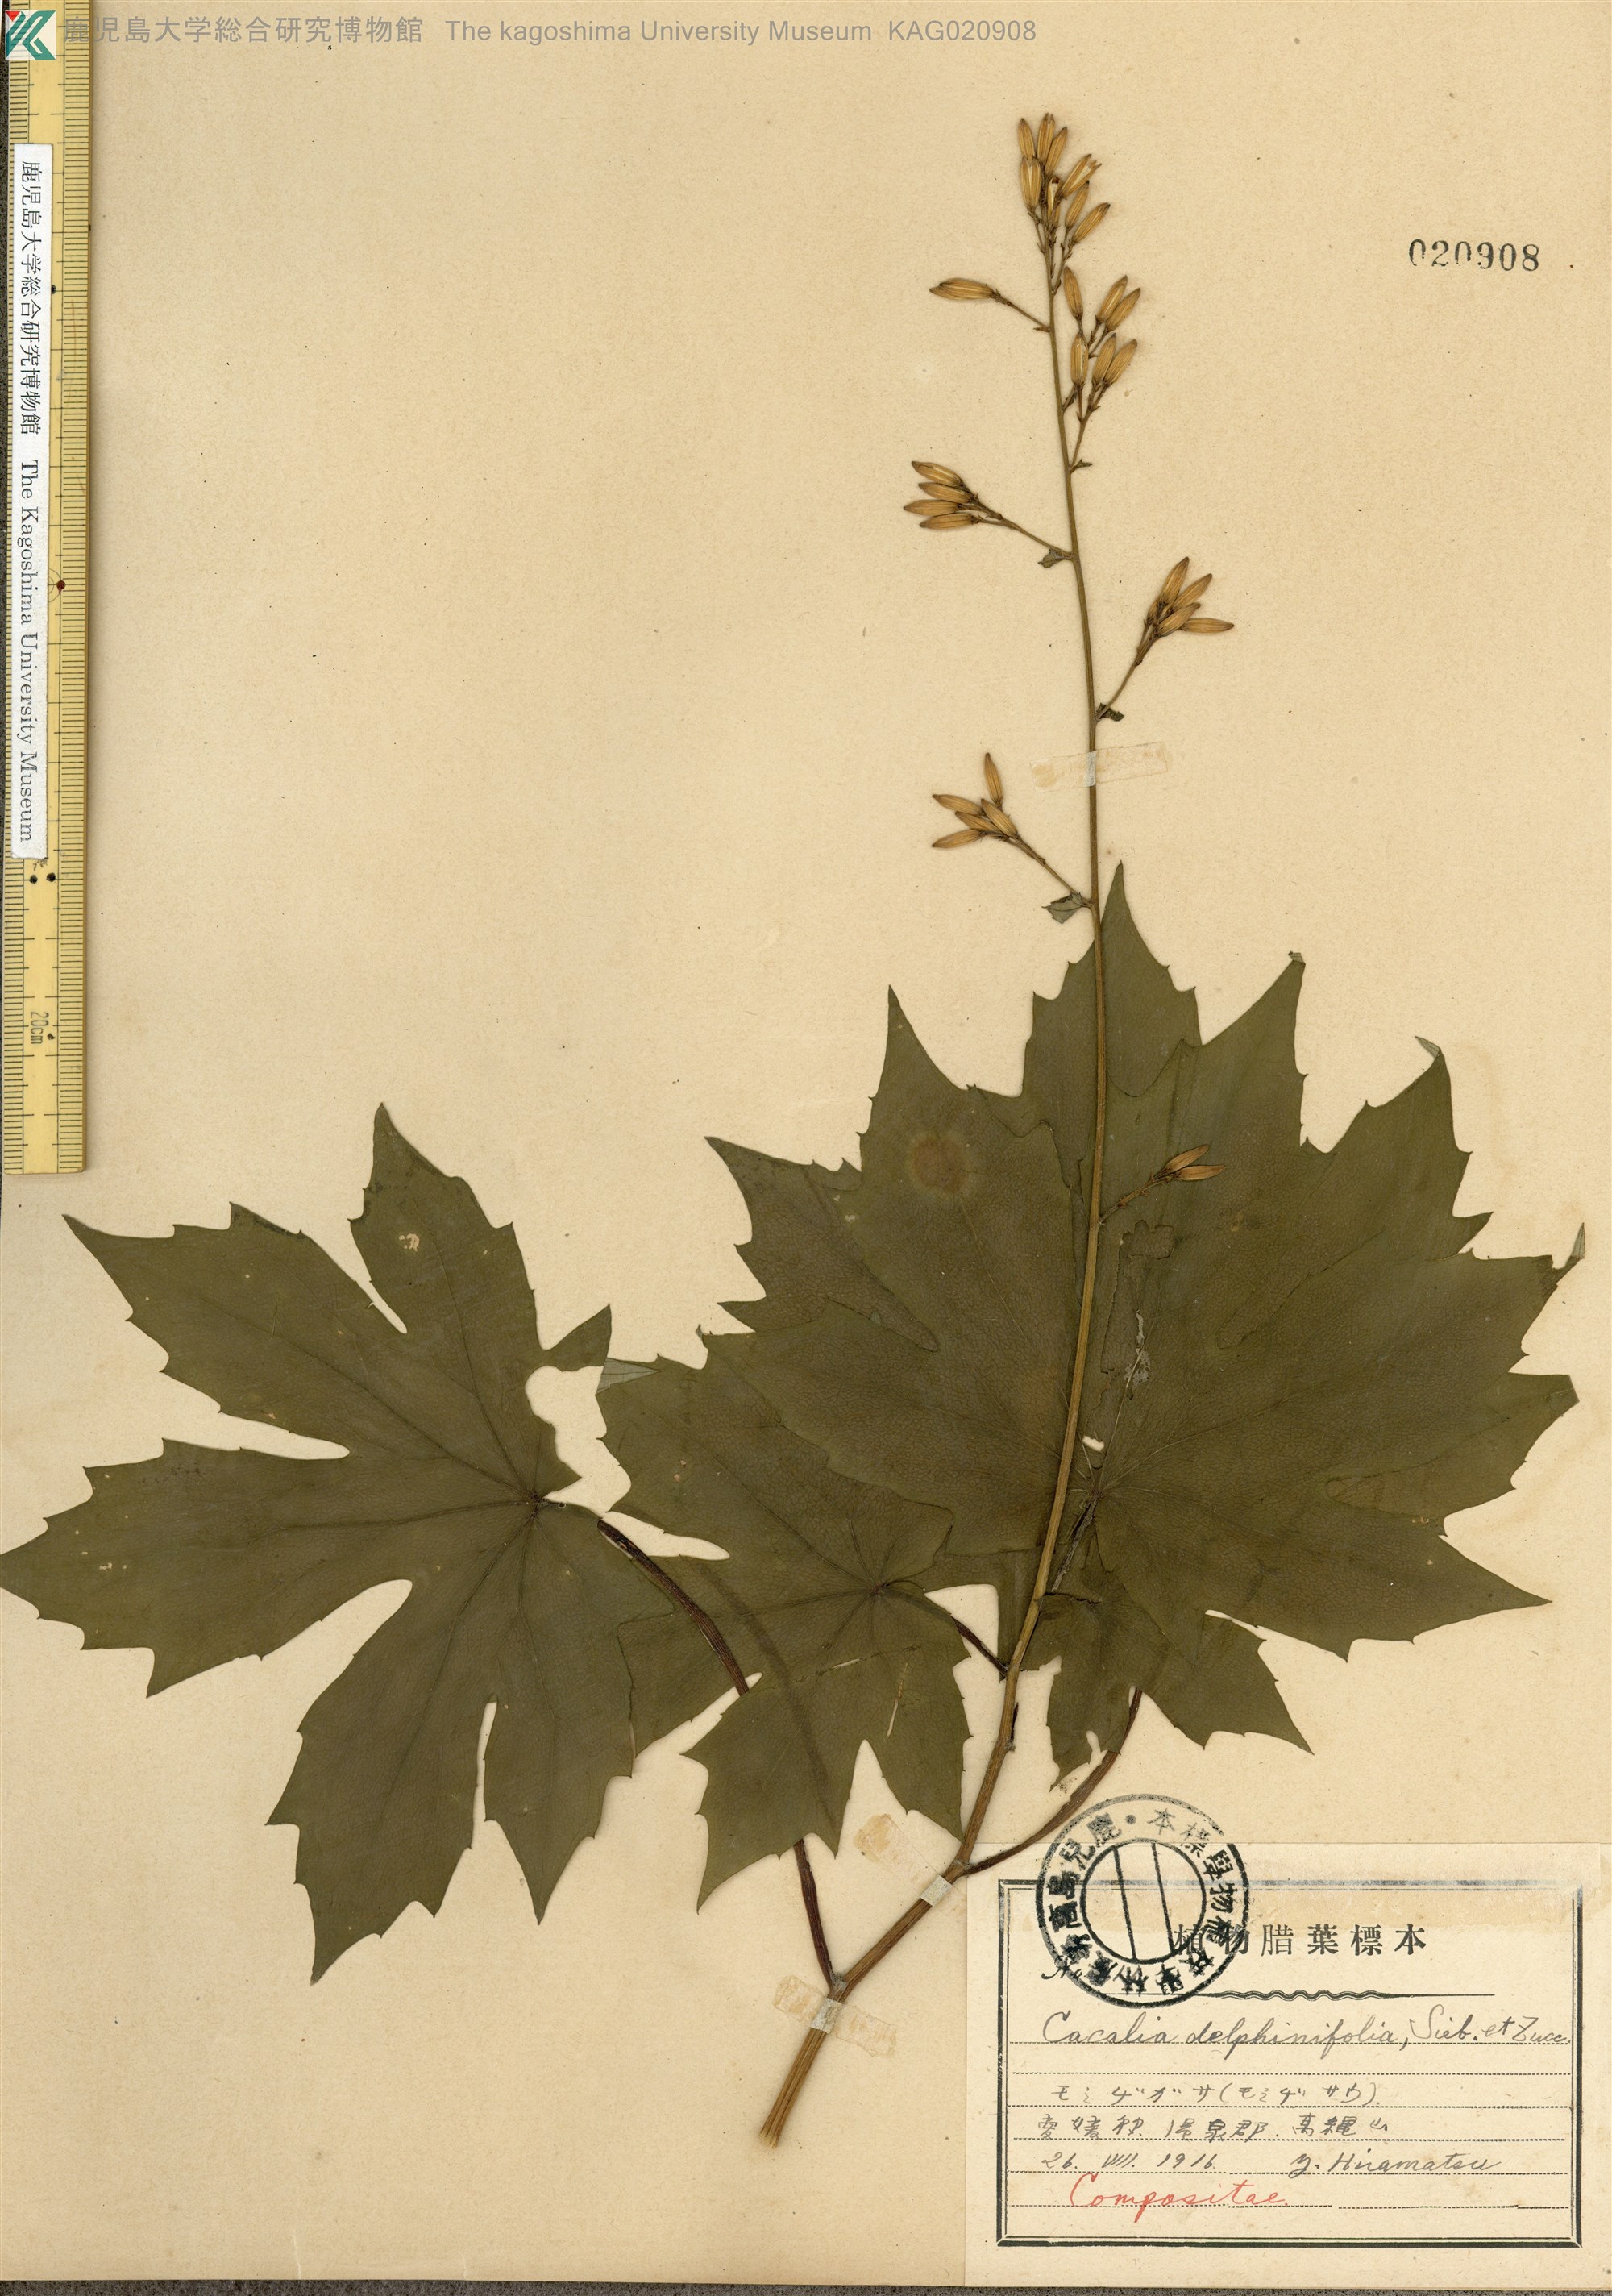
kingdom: Plantae
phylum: Tracheophyta
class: Magnoliopsida
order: Asterales
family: Asteraceae
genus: Japonicalia
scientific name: Japonicalia delphiniifolia
